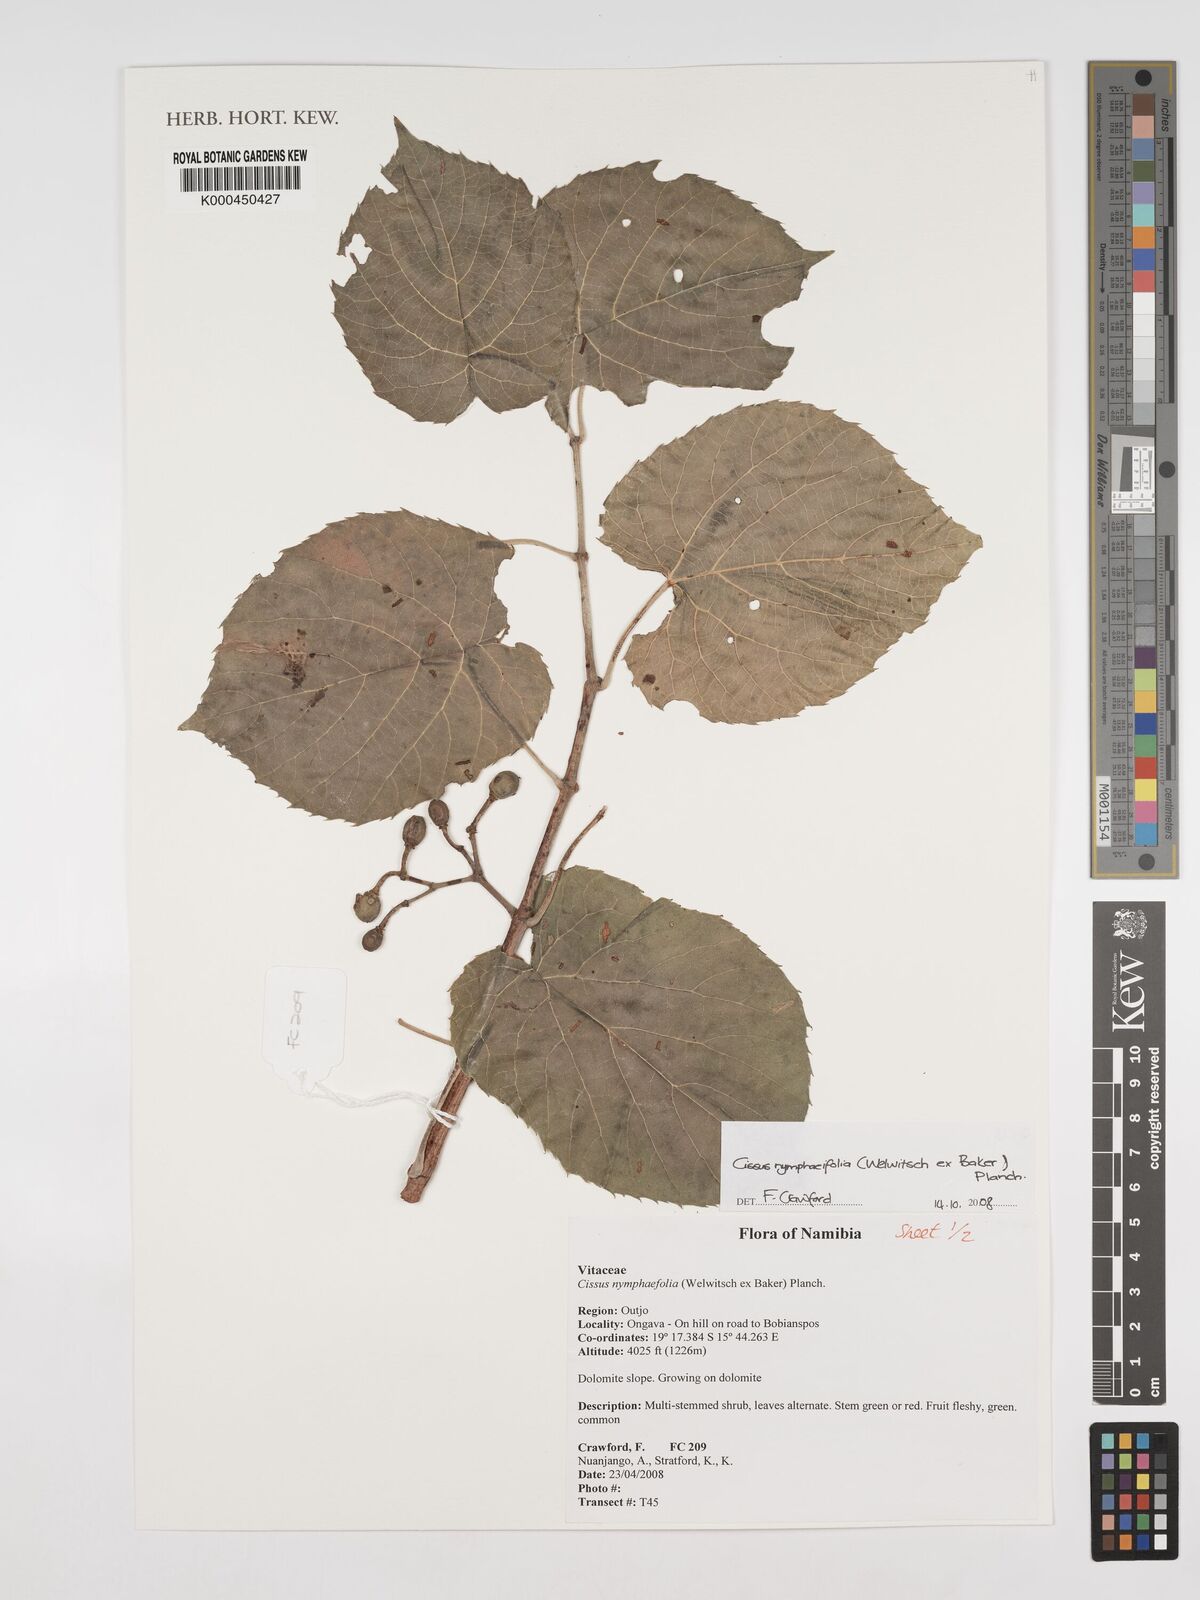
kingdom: Plantae
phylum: Tracheophyta
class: Magnoliopsida
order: Vitales
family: Vitaceae
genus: Cissus
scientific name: Cissus nymphaeifolia
